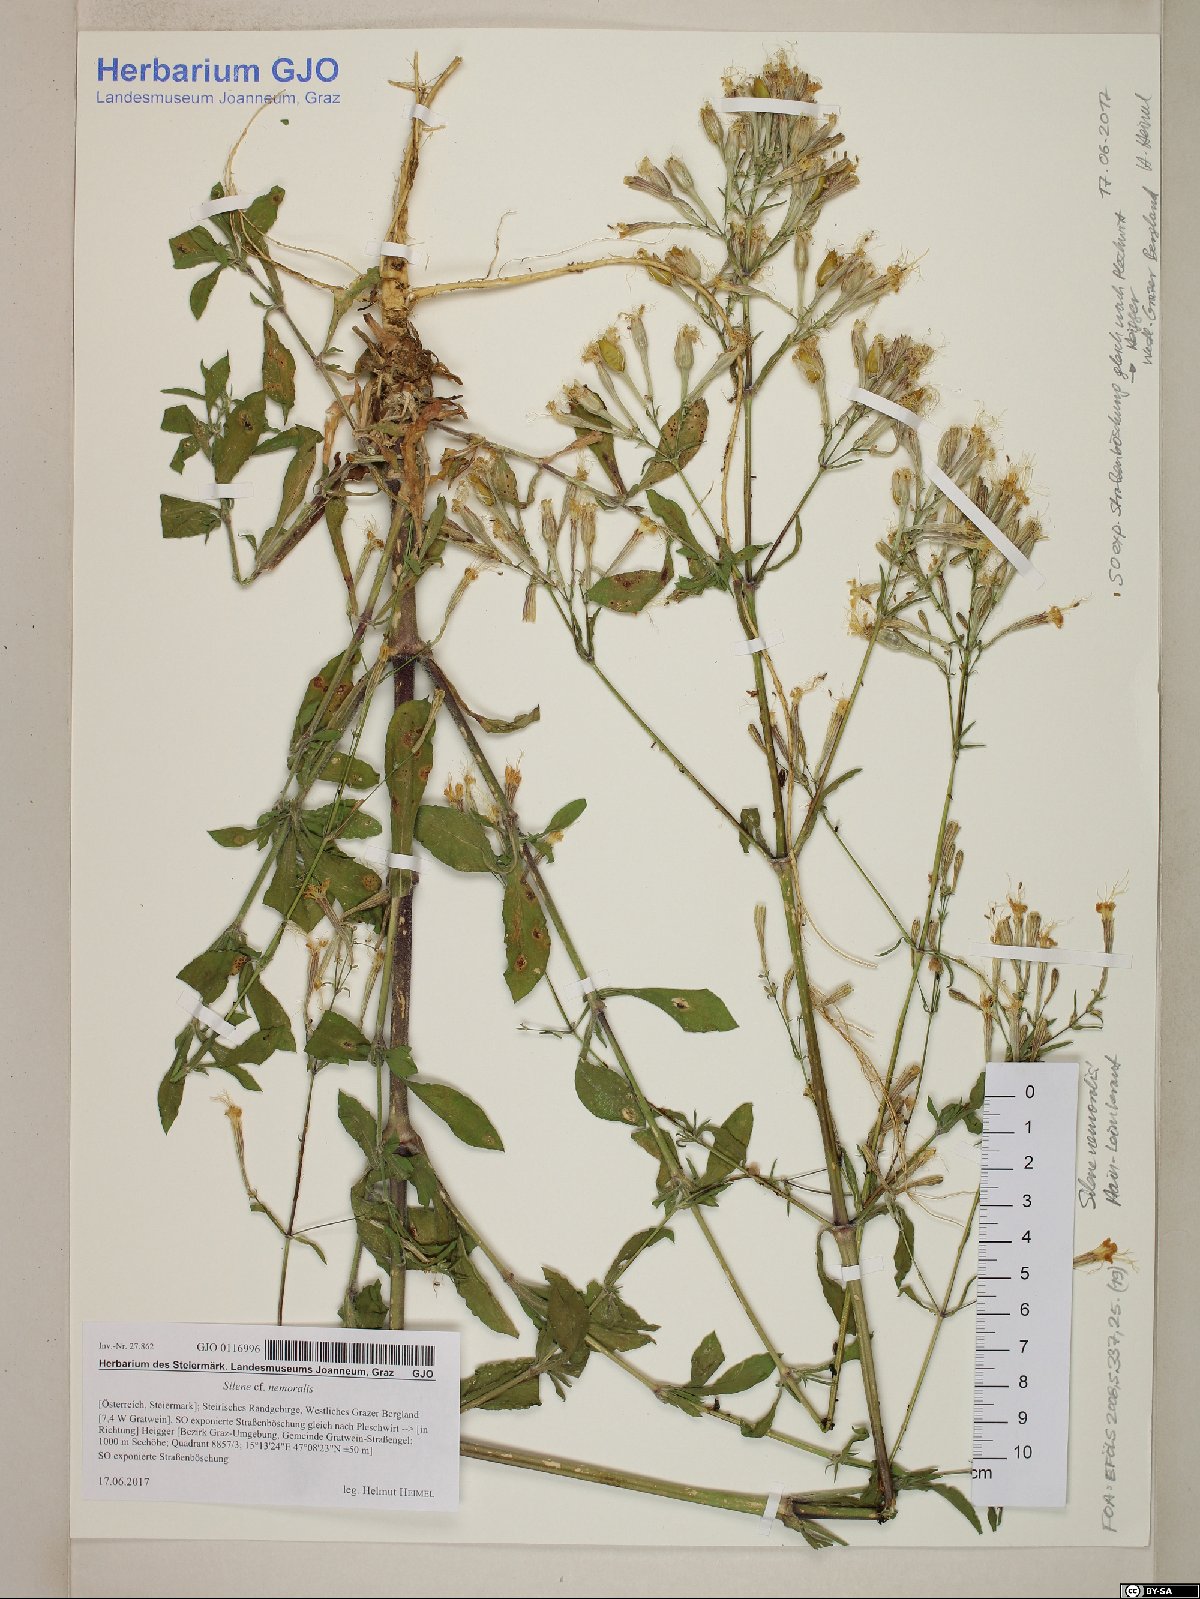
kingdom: Plantae
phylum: Tracheophyta
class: Magnoliopsida
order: Caryophyllales
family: Caryophyllaceae
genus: Silene
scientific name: Silene nemoralis
